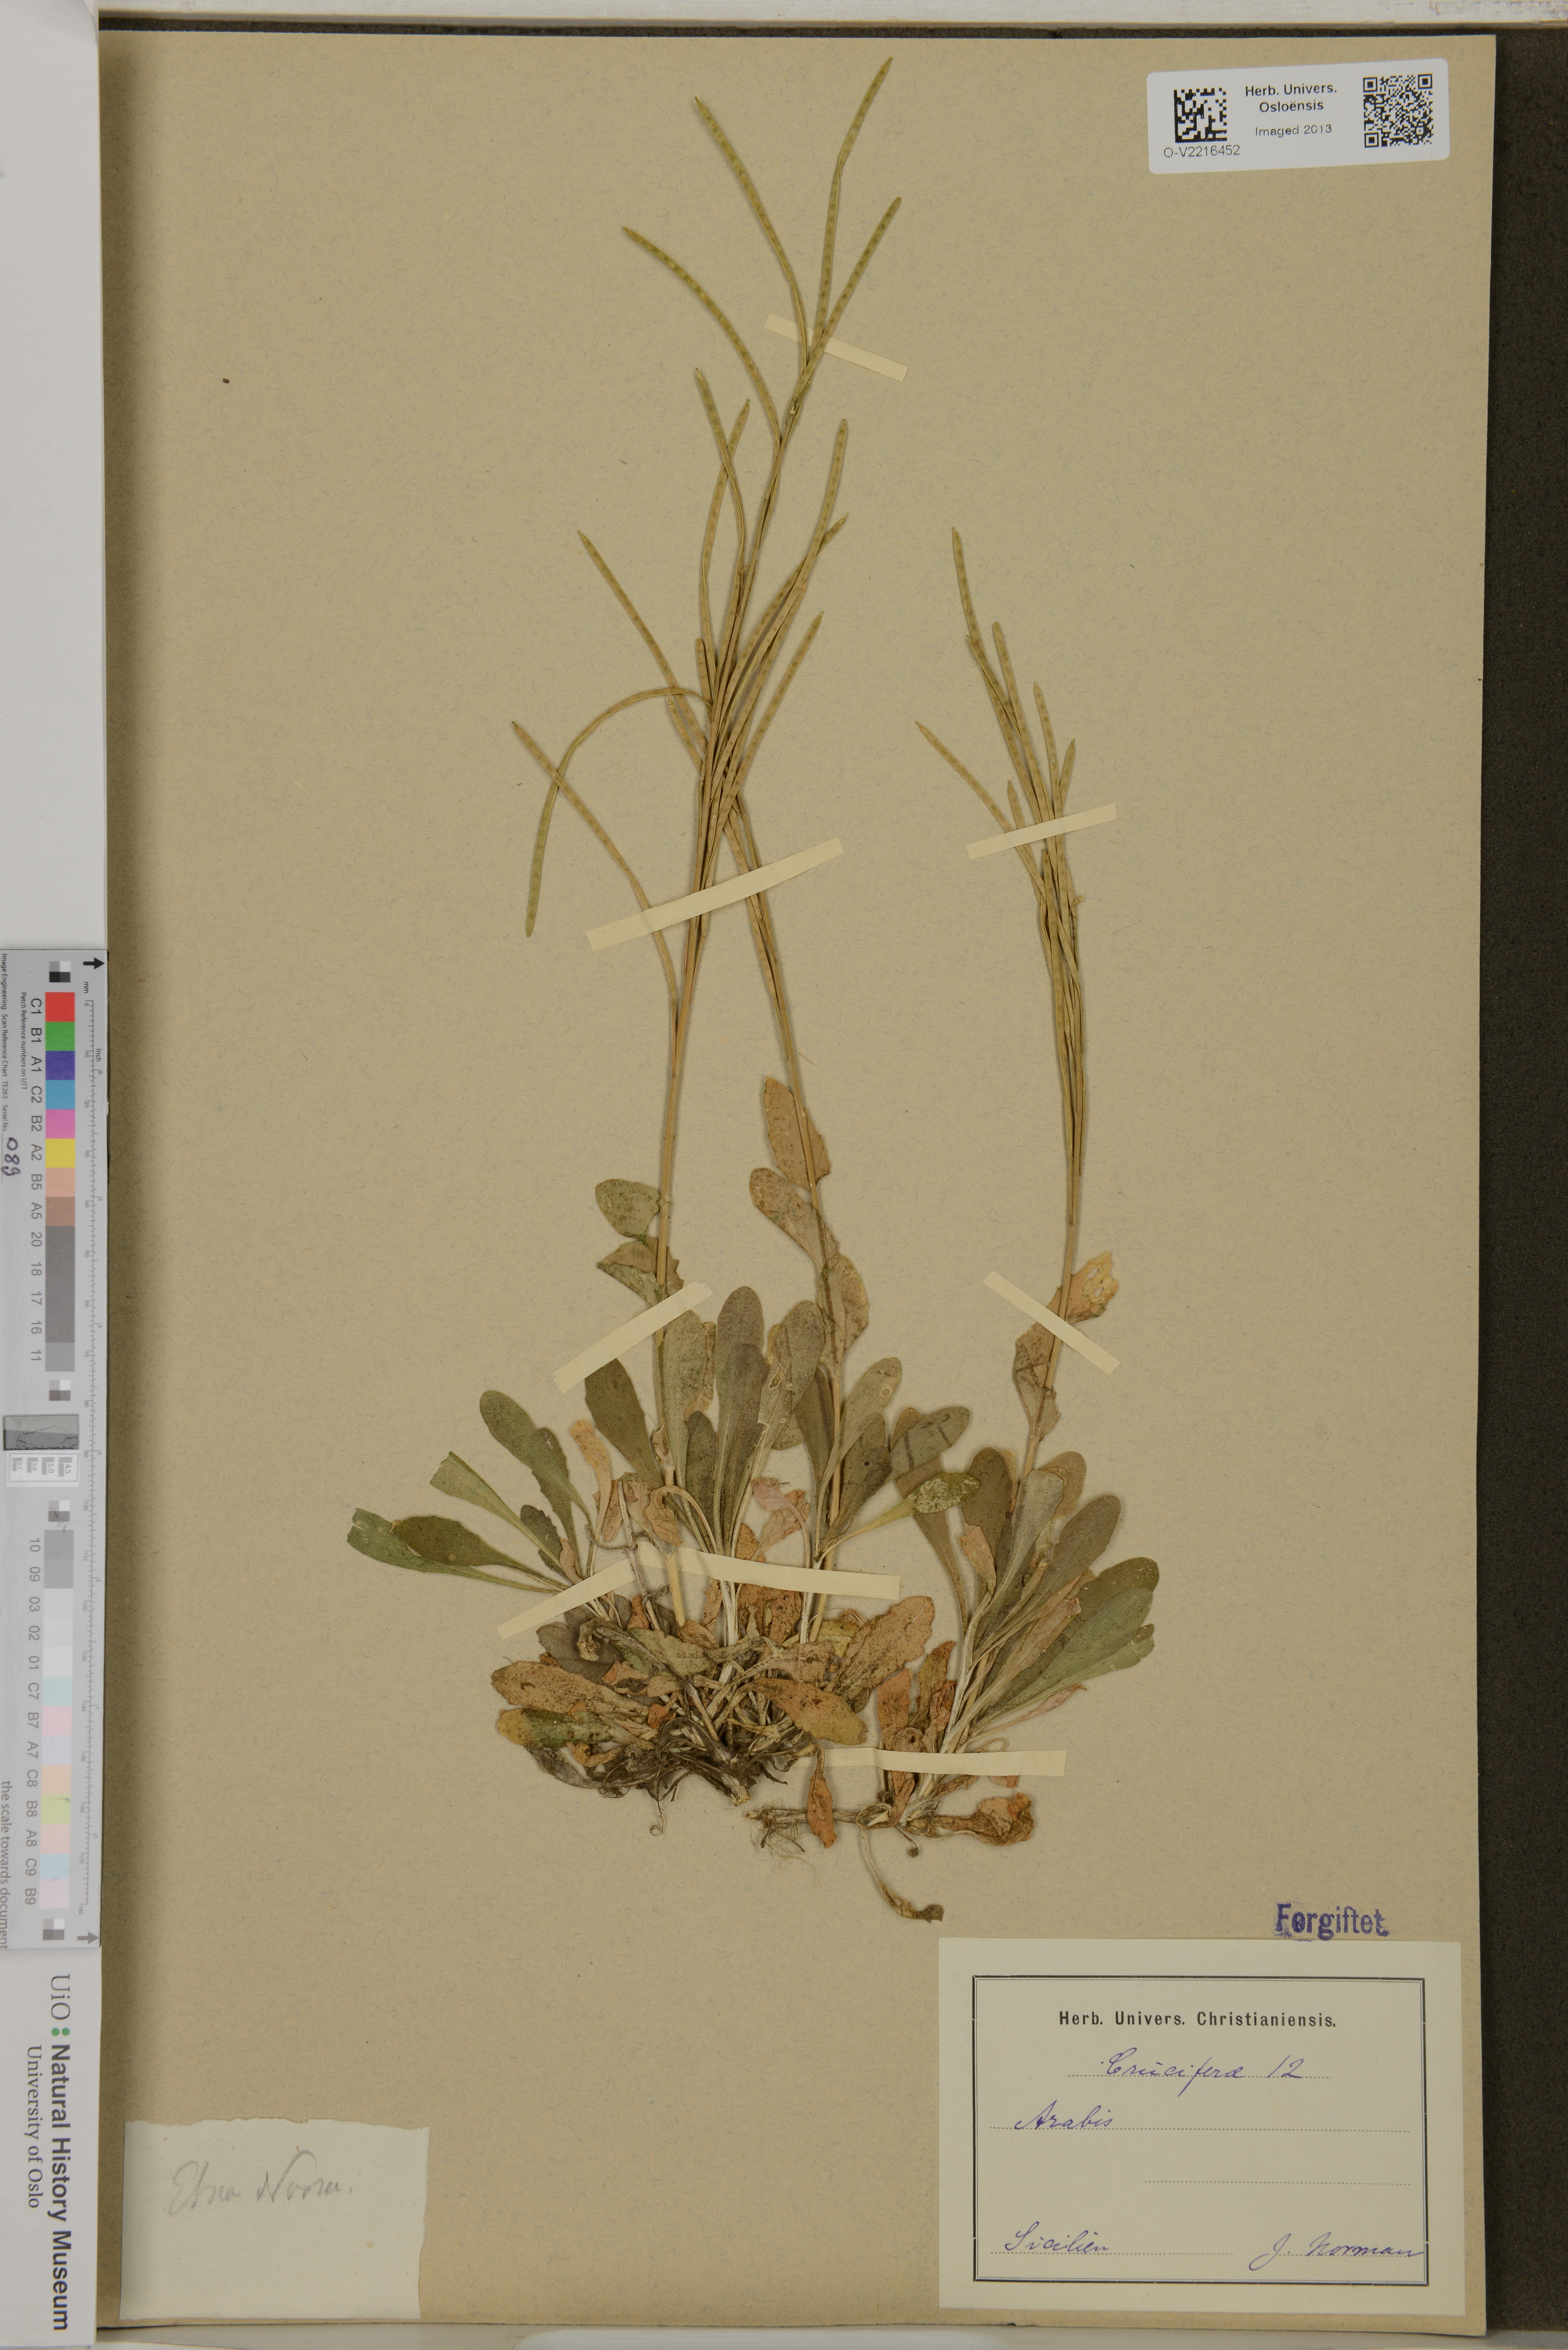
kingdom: Plantae
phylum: Tracheophyta
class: Magnoliopsida
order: Brassicales
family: Brassicaceae
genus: Arabis
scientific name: Arabis
